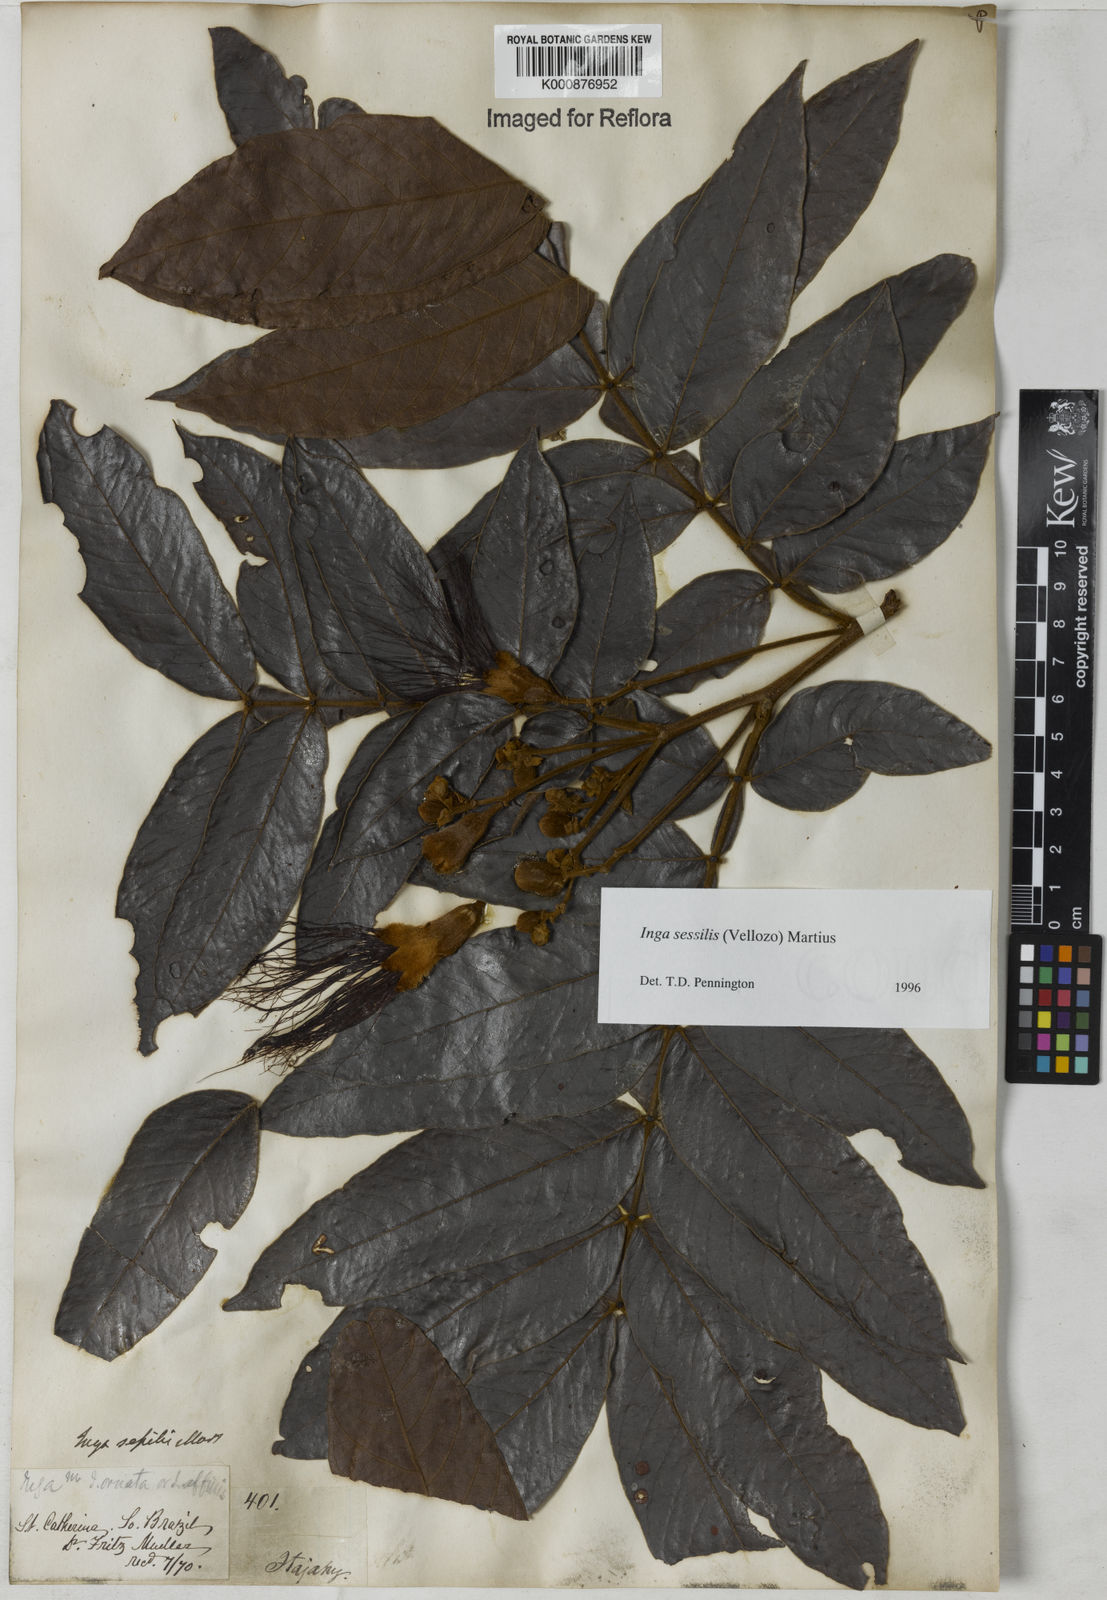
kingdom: Plantae
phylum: Tracheophyta
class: Magnoliopsida
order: Fabales
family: Fabaceae
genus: Inga
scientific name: Inga sessilis
